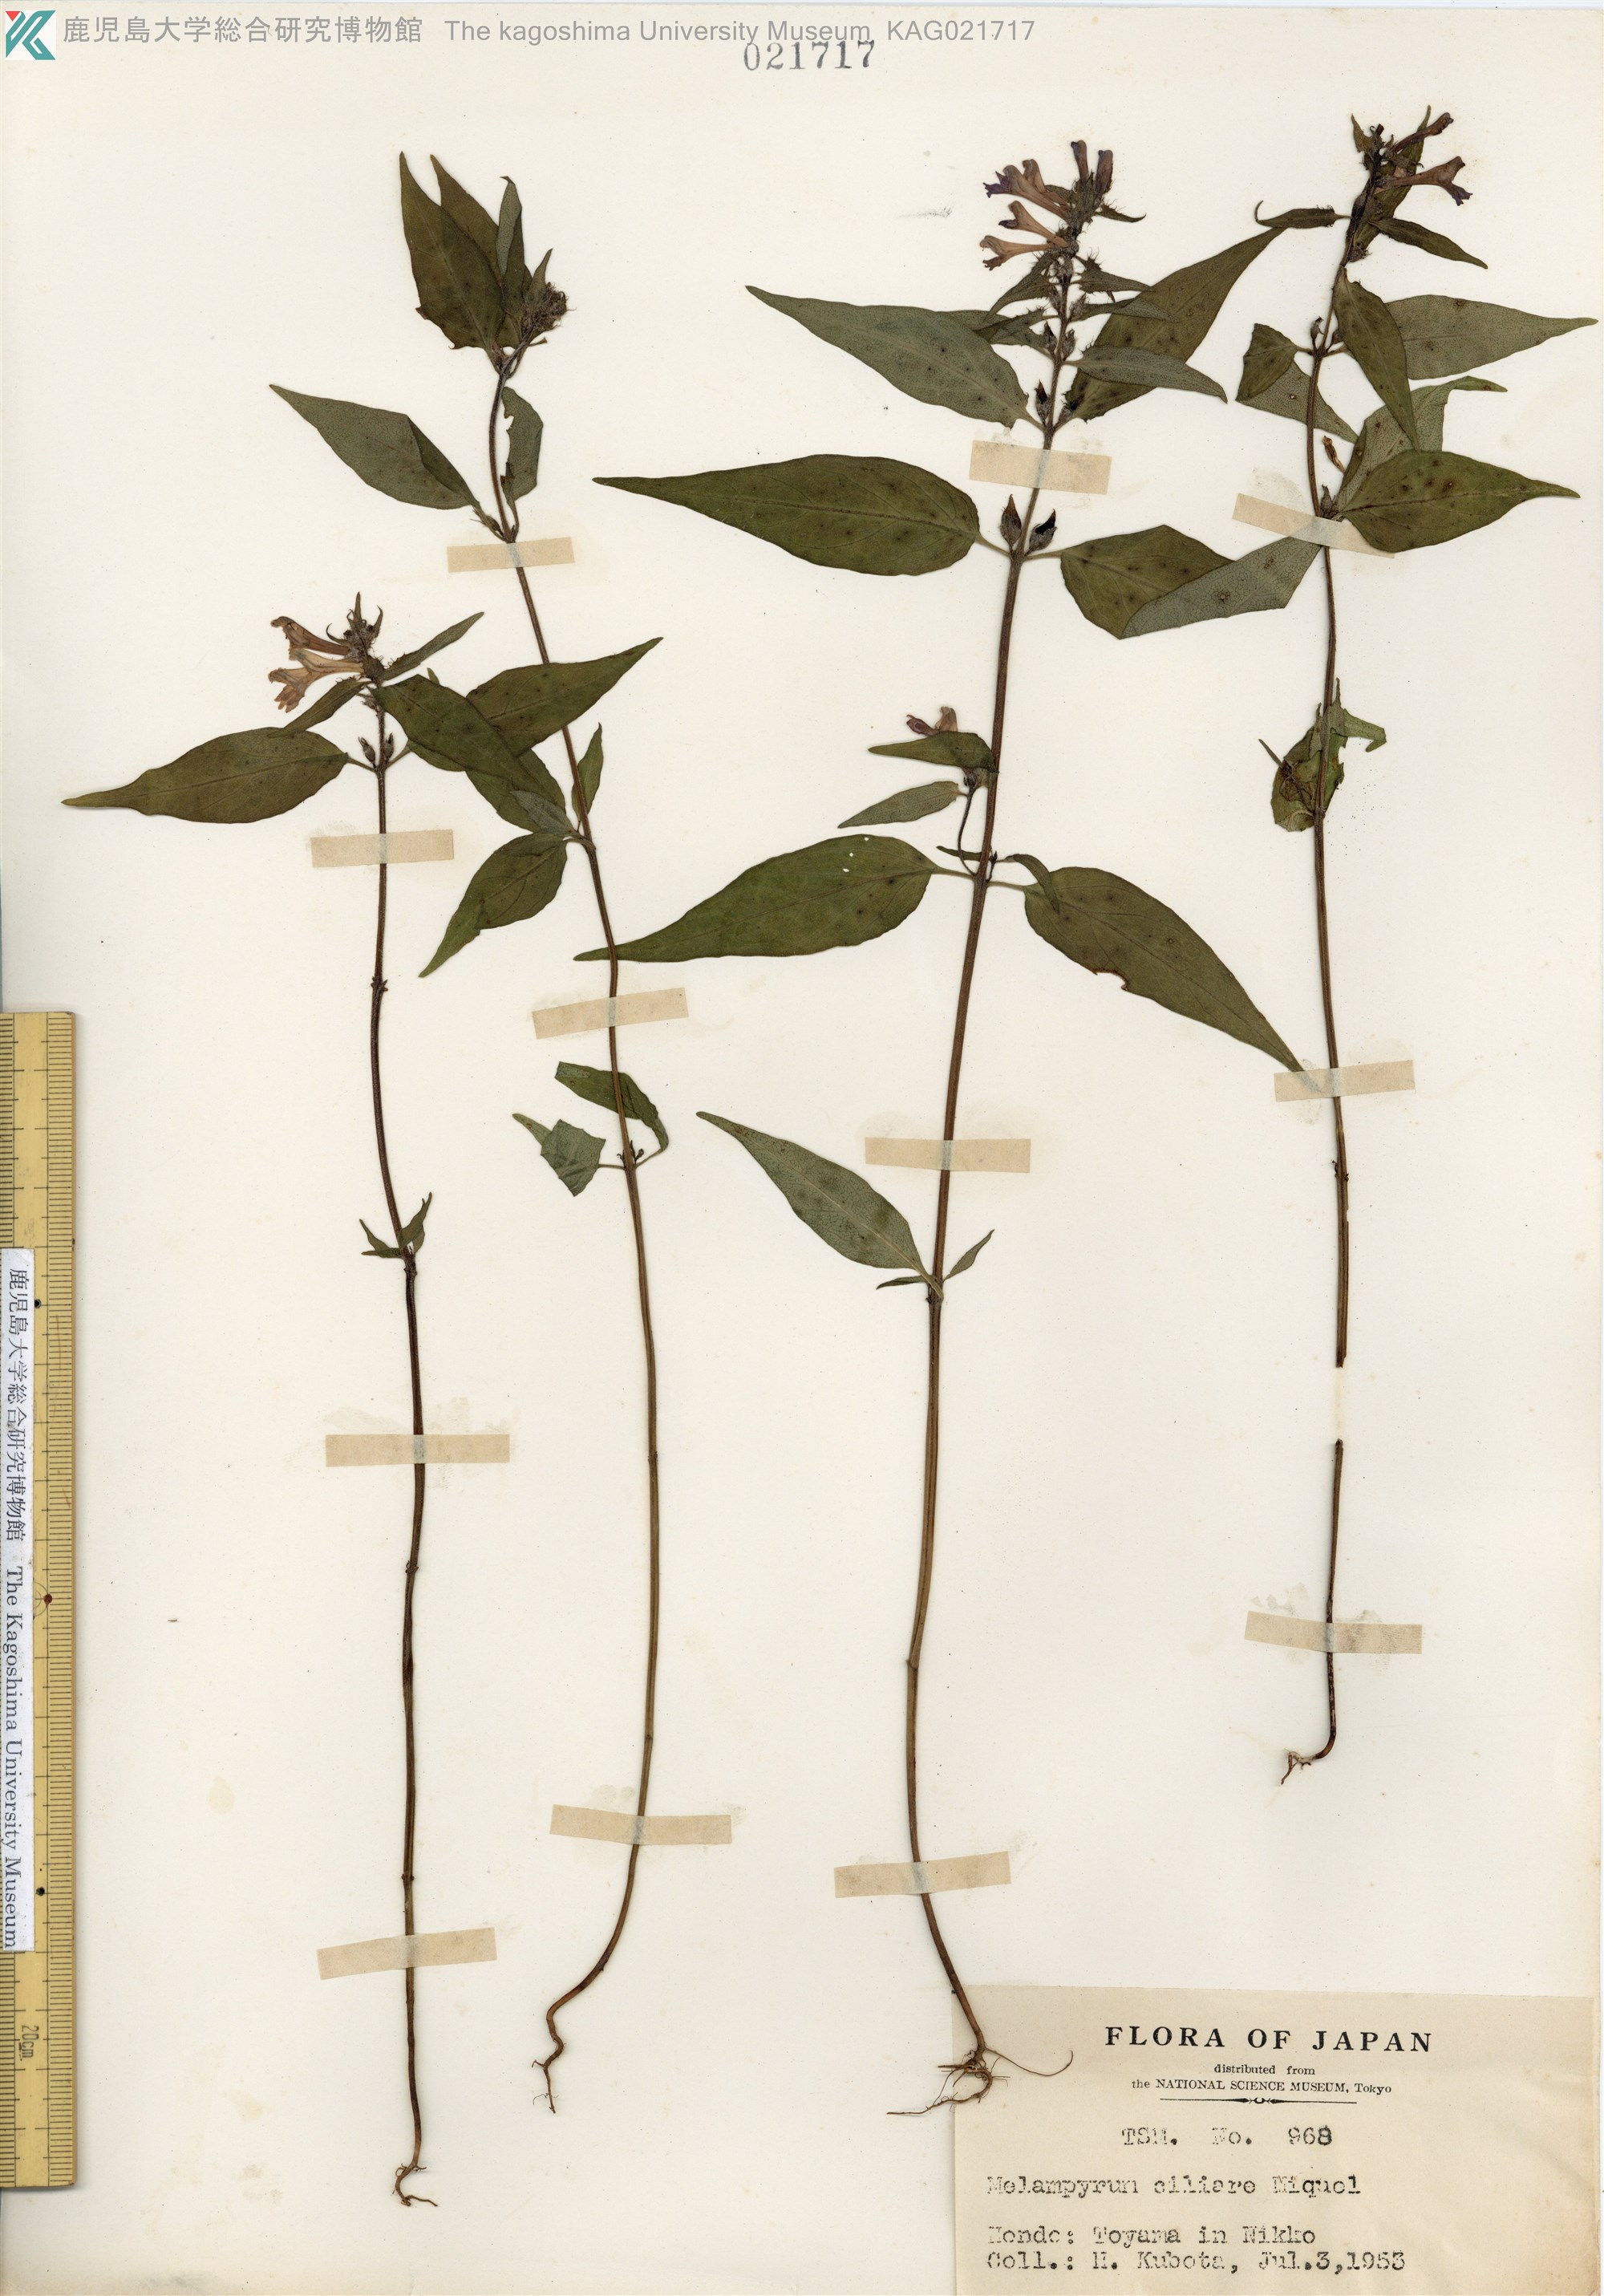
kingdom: Plantae
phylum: Tracheophyta
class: Magnoliopsida
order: Lamiales
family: Orobanchaceae
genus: Melampyrum
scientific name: Melampyrum roseum
